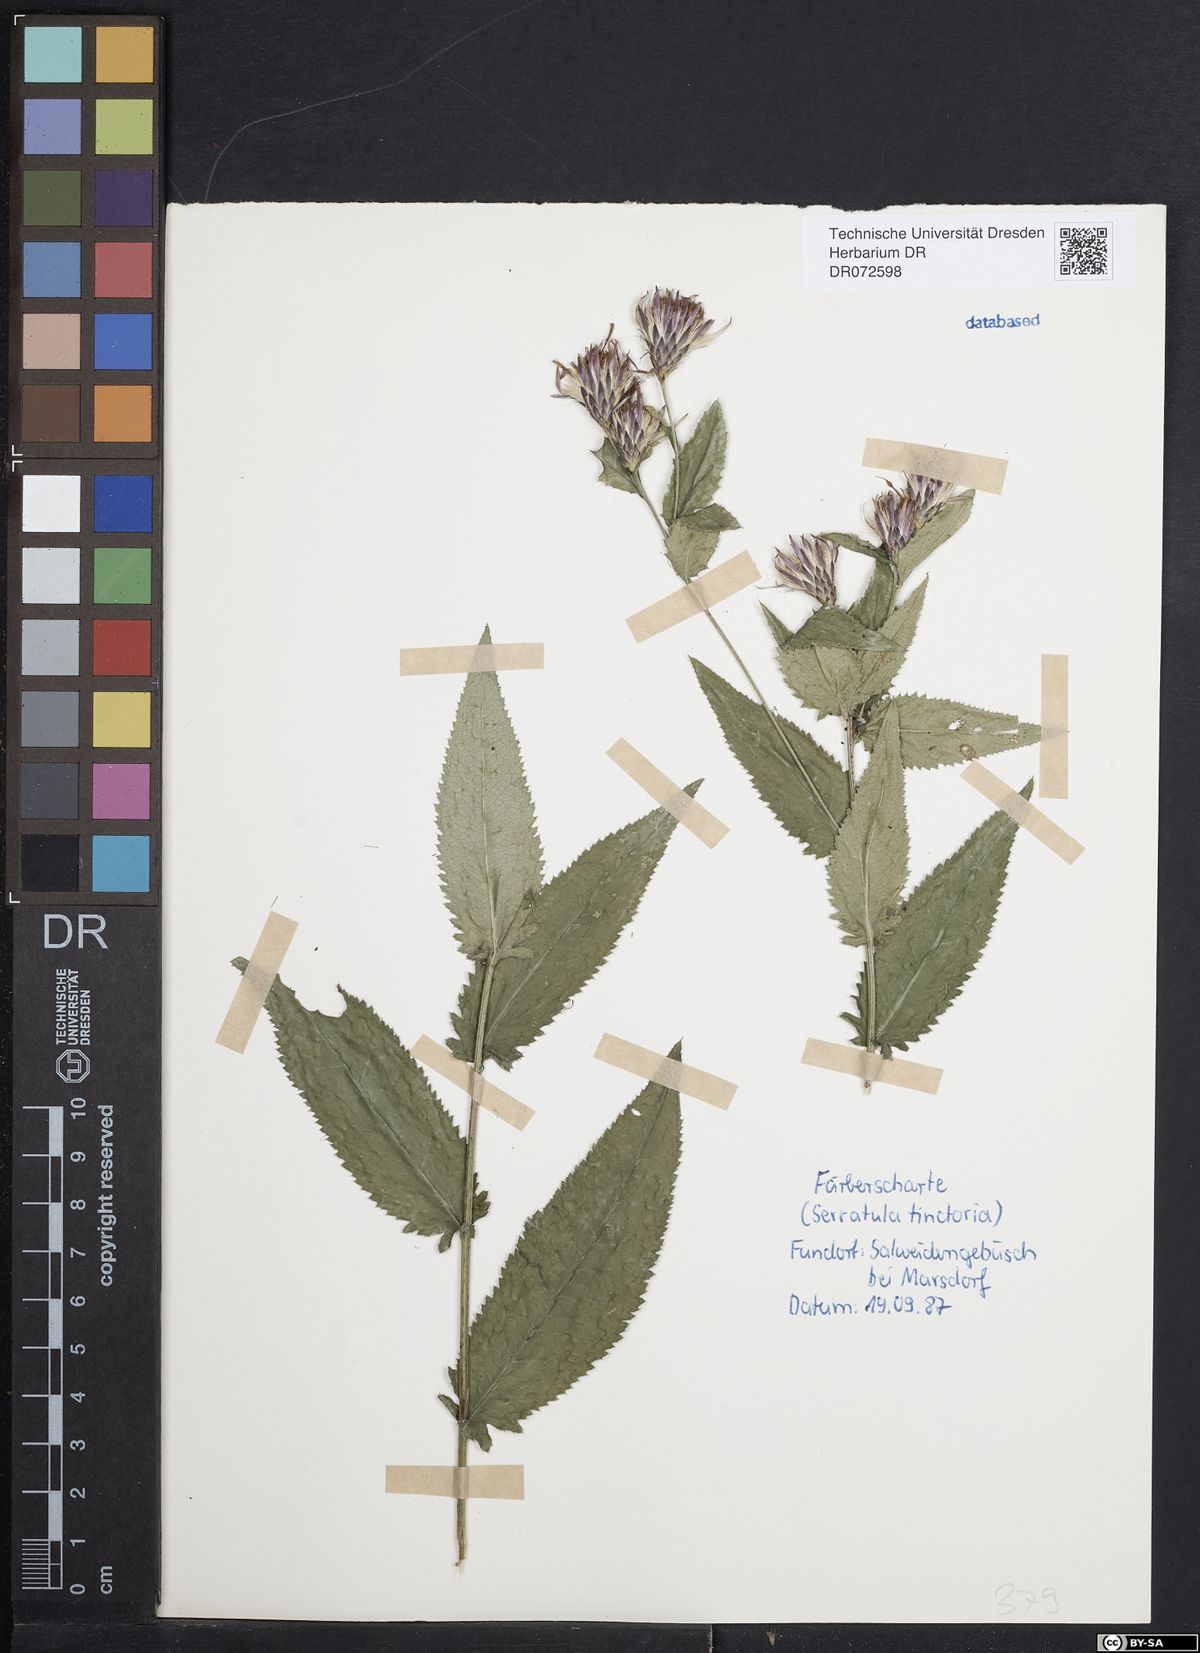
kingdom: Plantae
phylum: Tracheophyta
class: Magnoliopsida
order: Asterales
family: Asteraceae
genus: Serratula
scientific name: Serratula tinctoria
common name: Saw-wort
